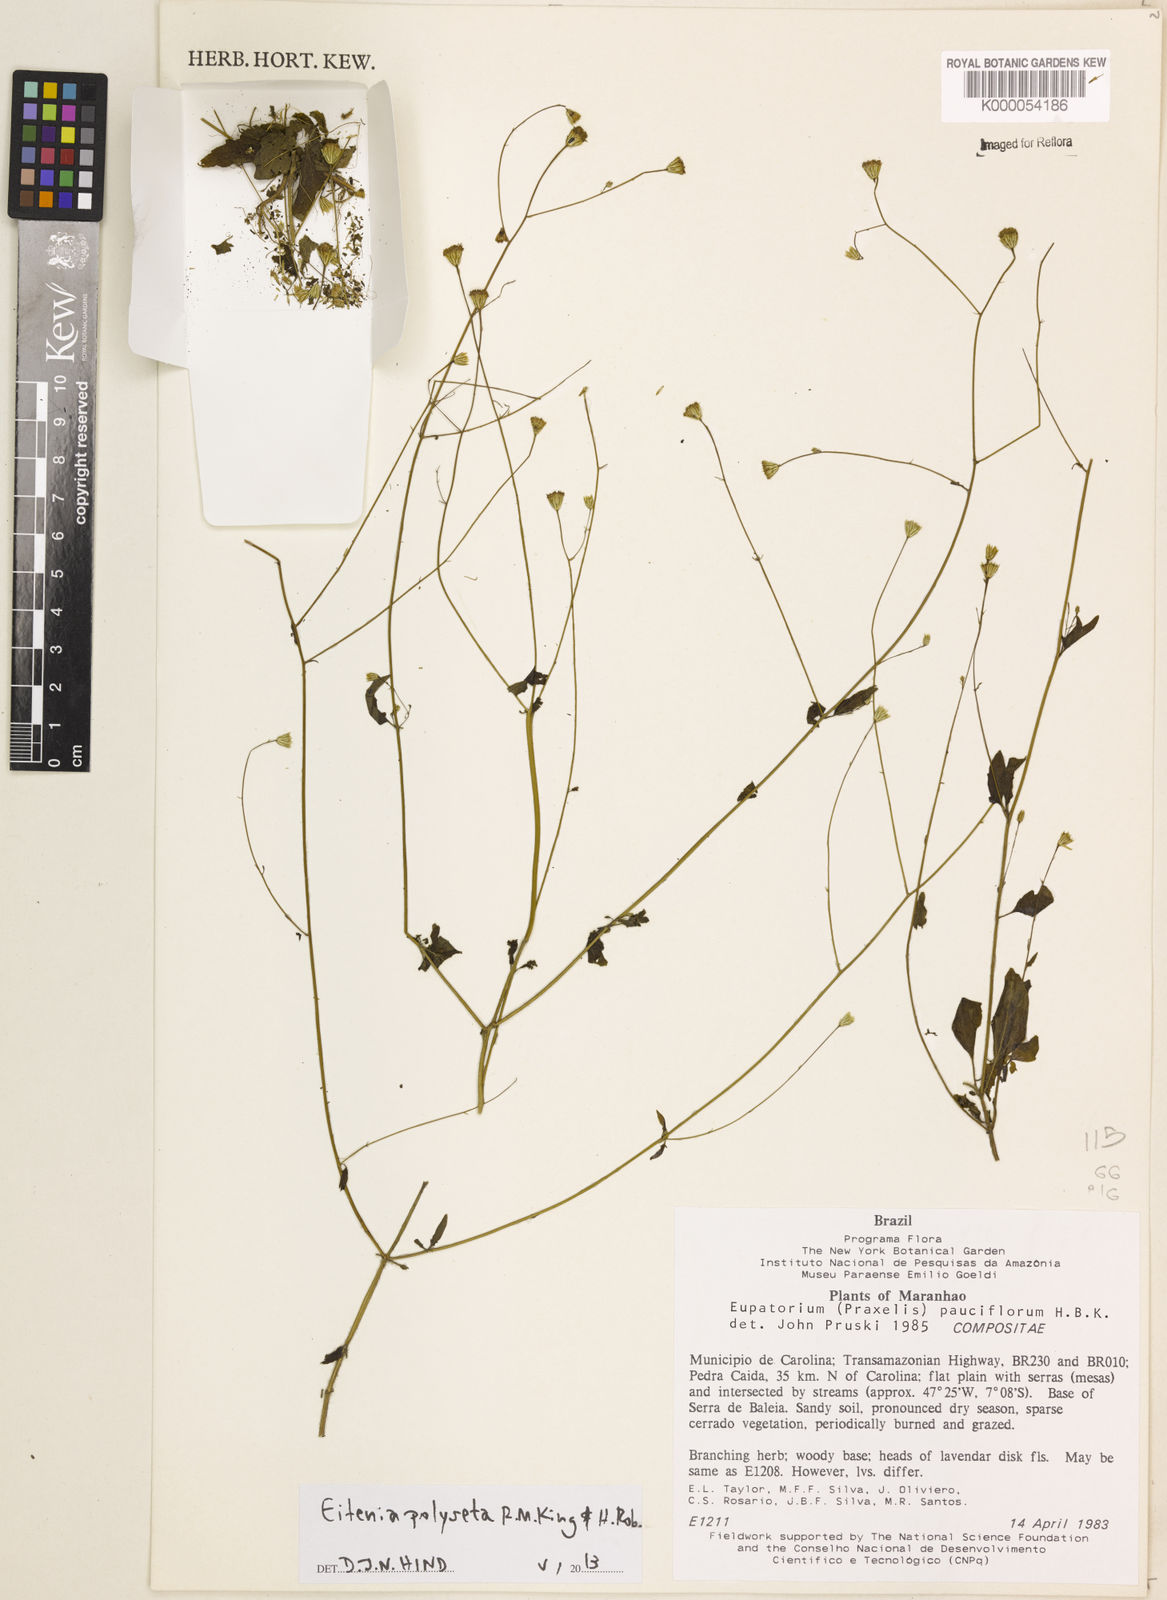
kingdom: Plantae
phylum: Tracheophyta
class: Magnoliopsida
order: Asterales
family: Asteraceae
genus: Praxelis
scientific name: Praxelis diffusa
